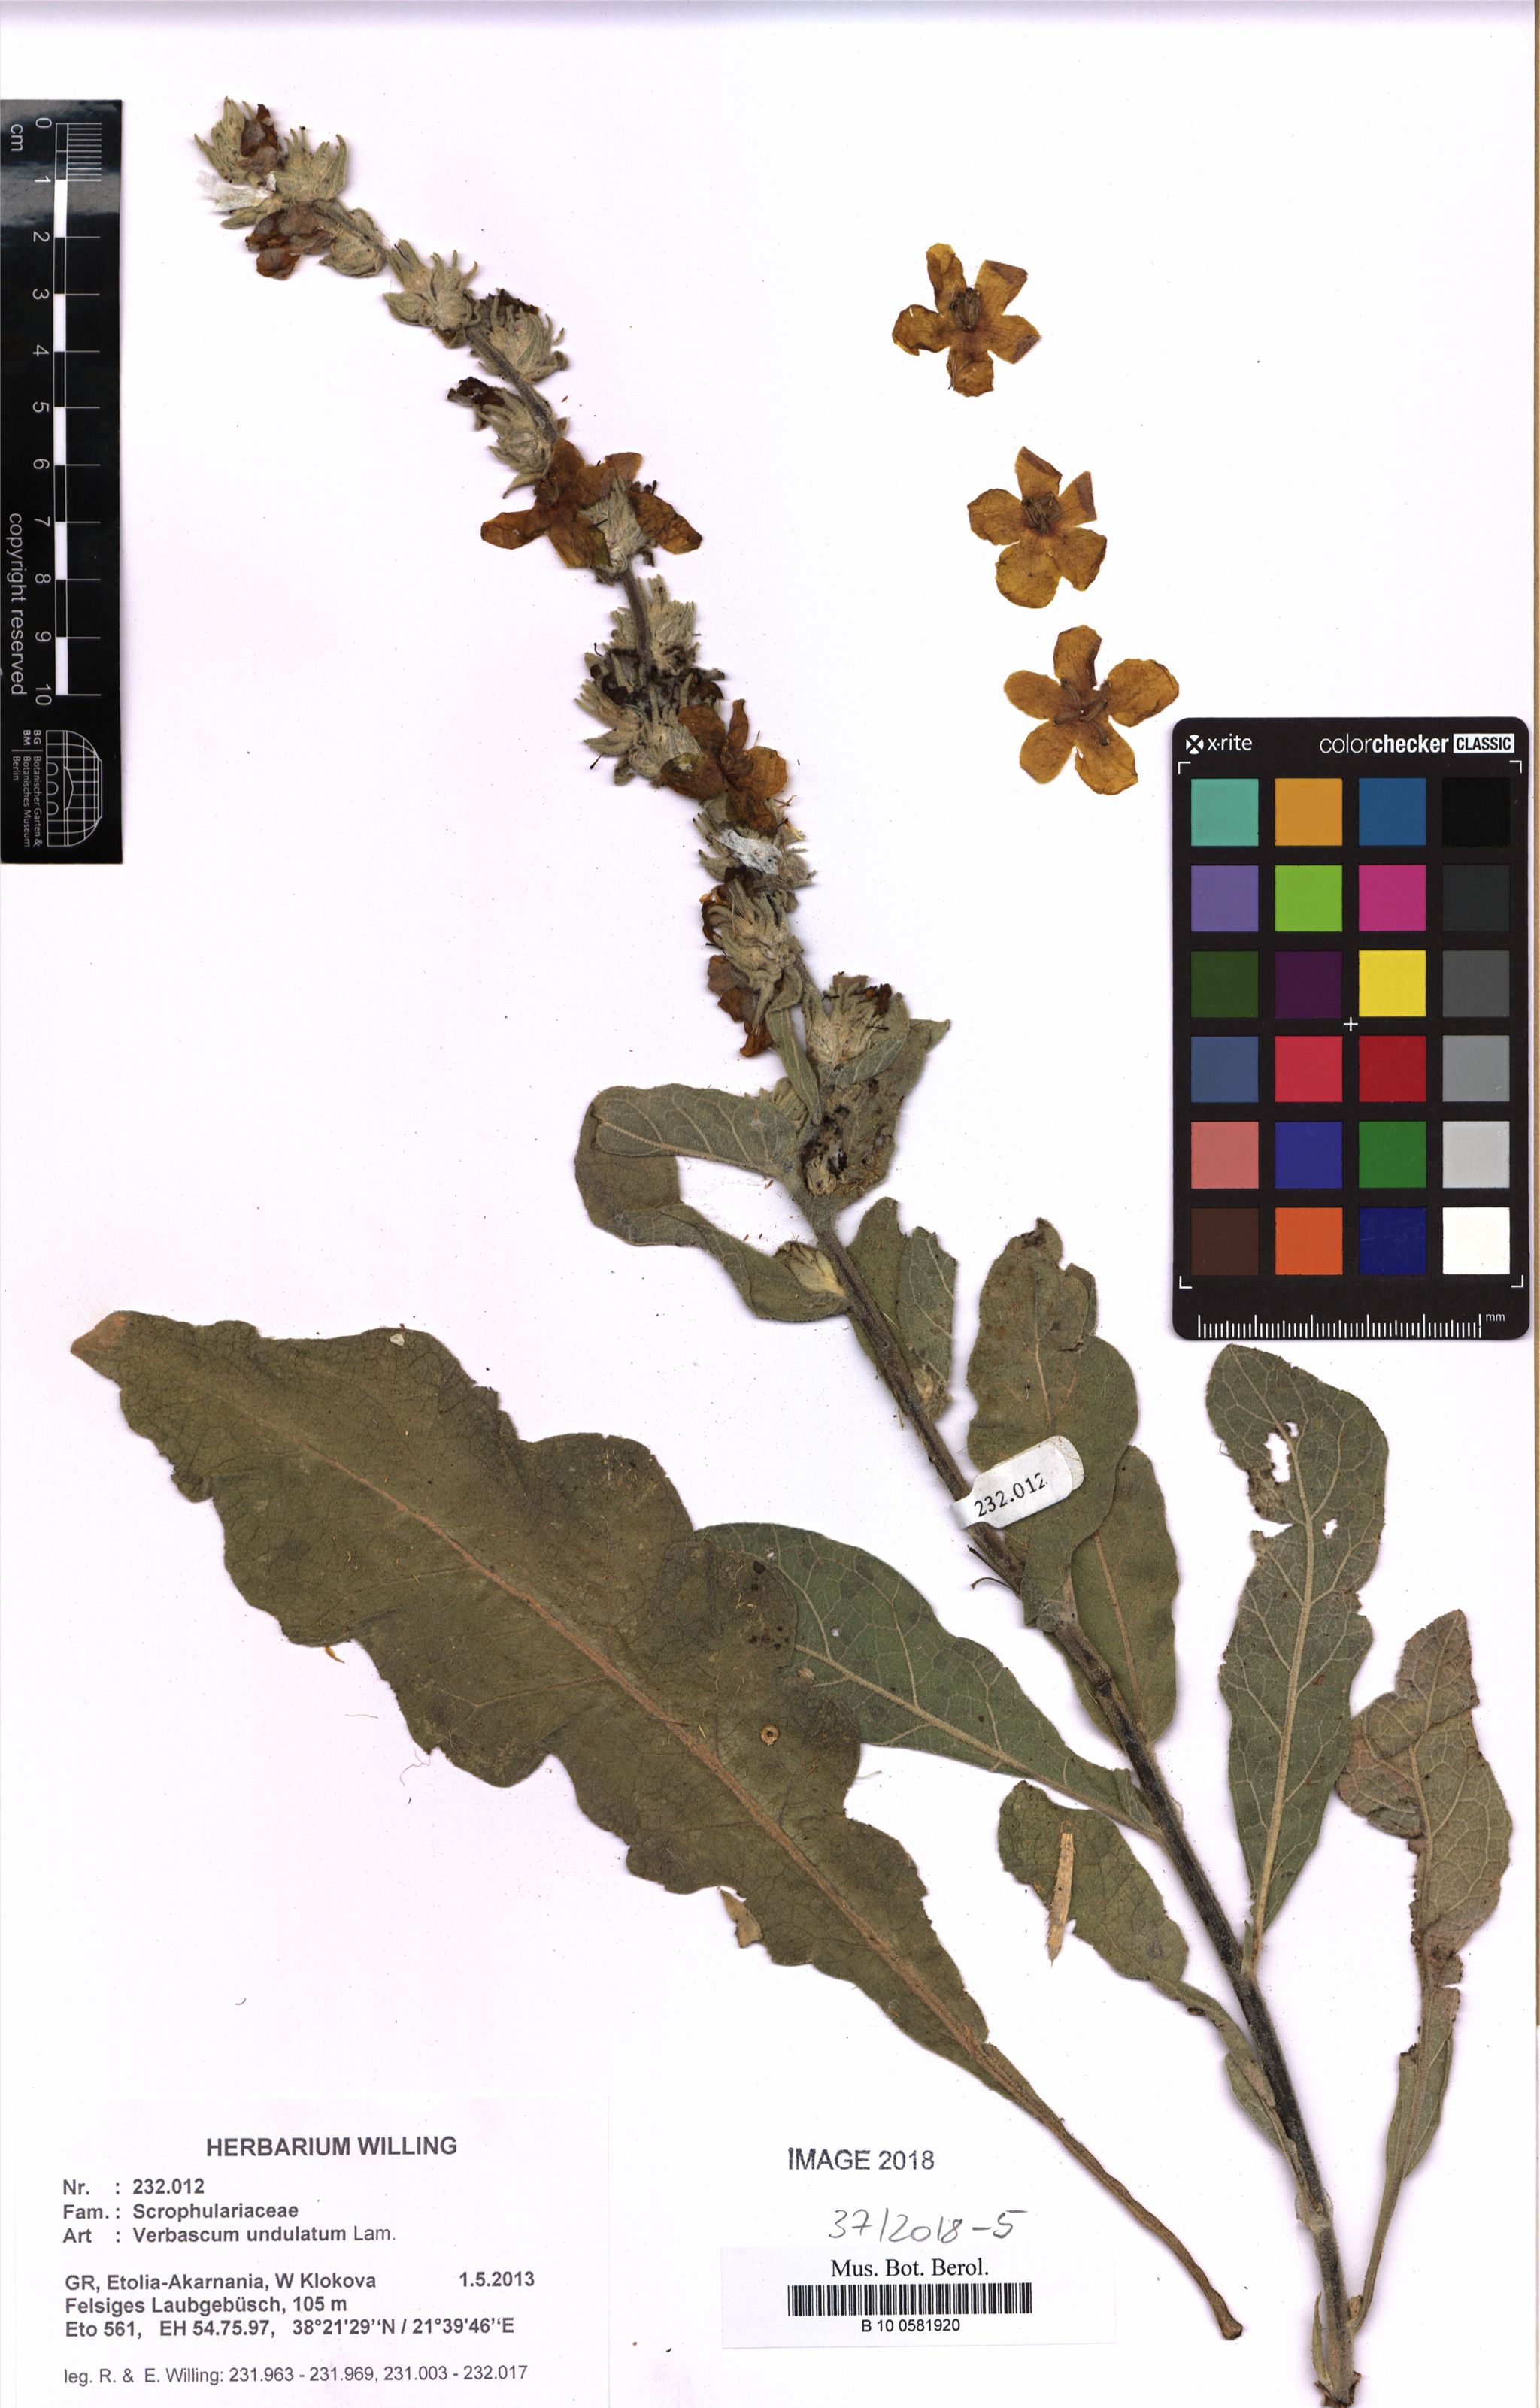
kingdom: Plantae
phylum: Tracheophyta
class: Magnoliopsida
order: Lamiales
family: Scrophulariaceae
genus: Verbascum
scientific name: Verbascum undulatum
